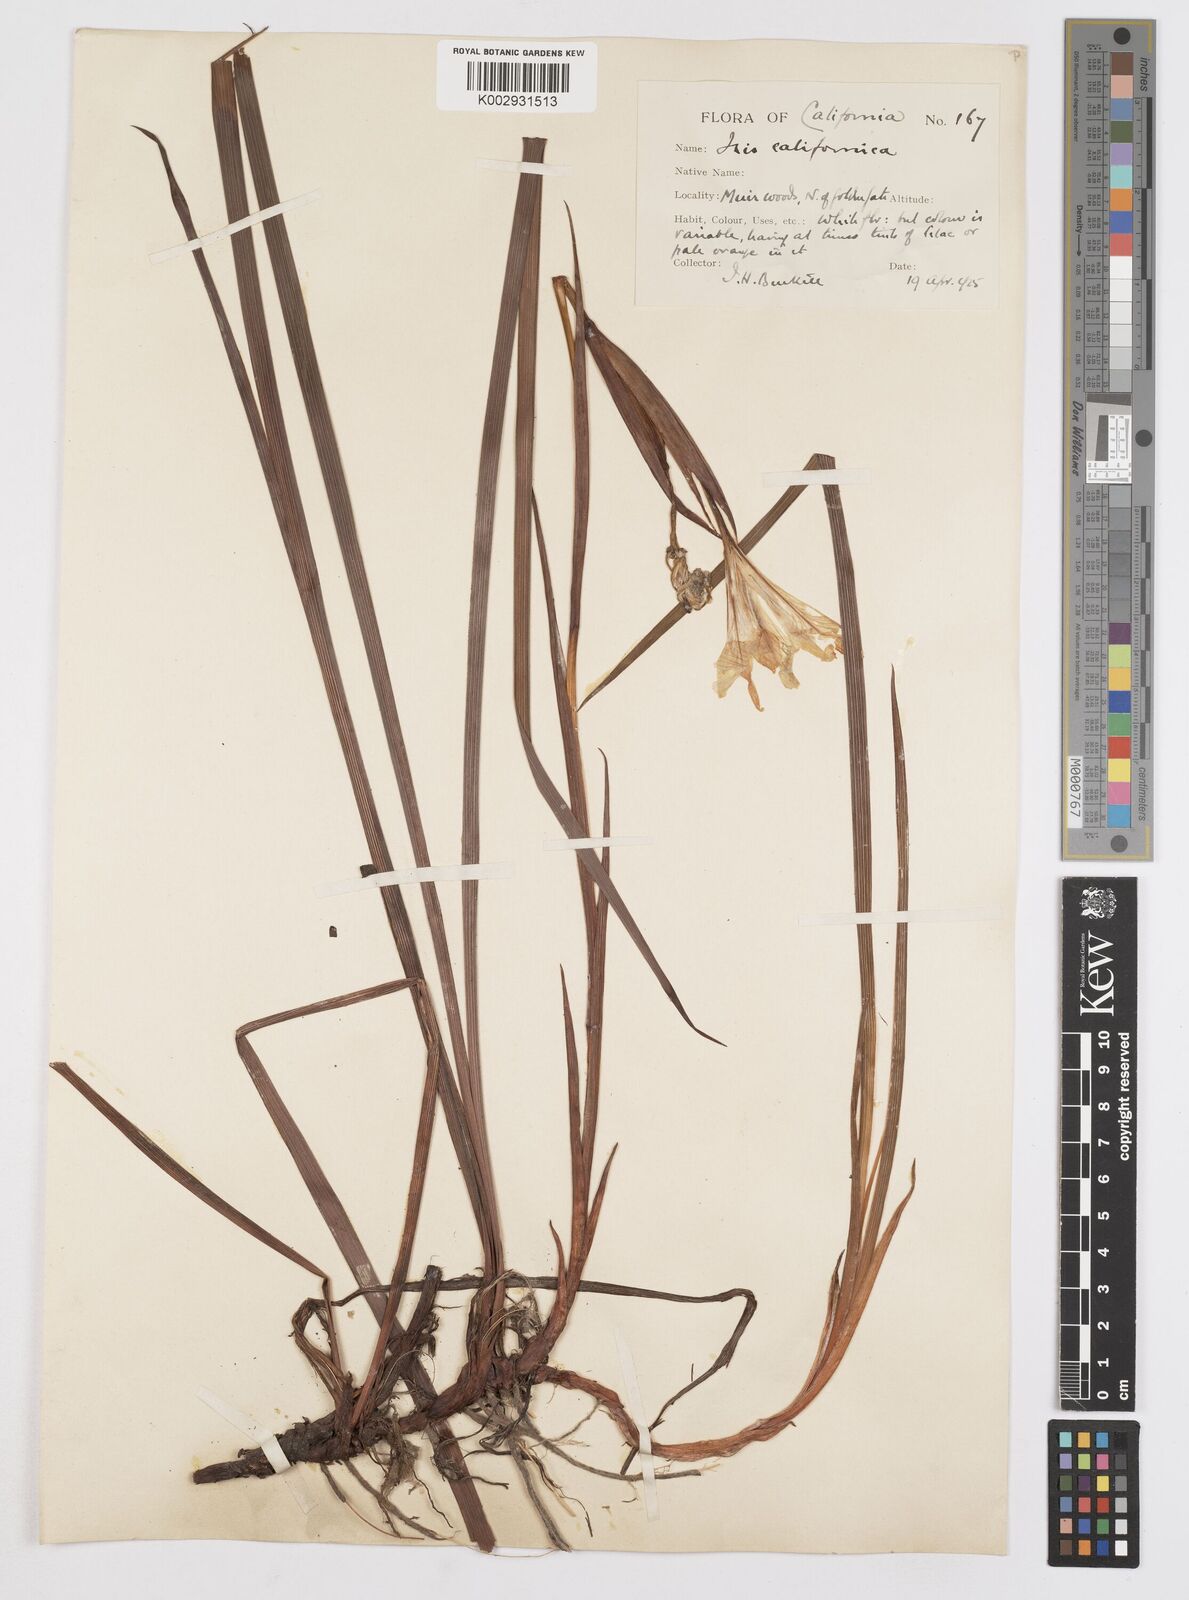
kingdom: Plantae
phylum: Tracheophyta
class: Liliopsida
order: Asparagales
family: Iridaceae
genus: Iris
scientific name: Iris macrosiphon
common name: Ground iris
